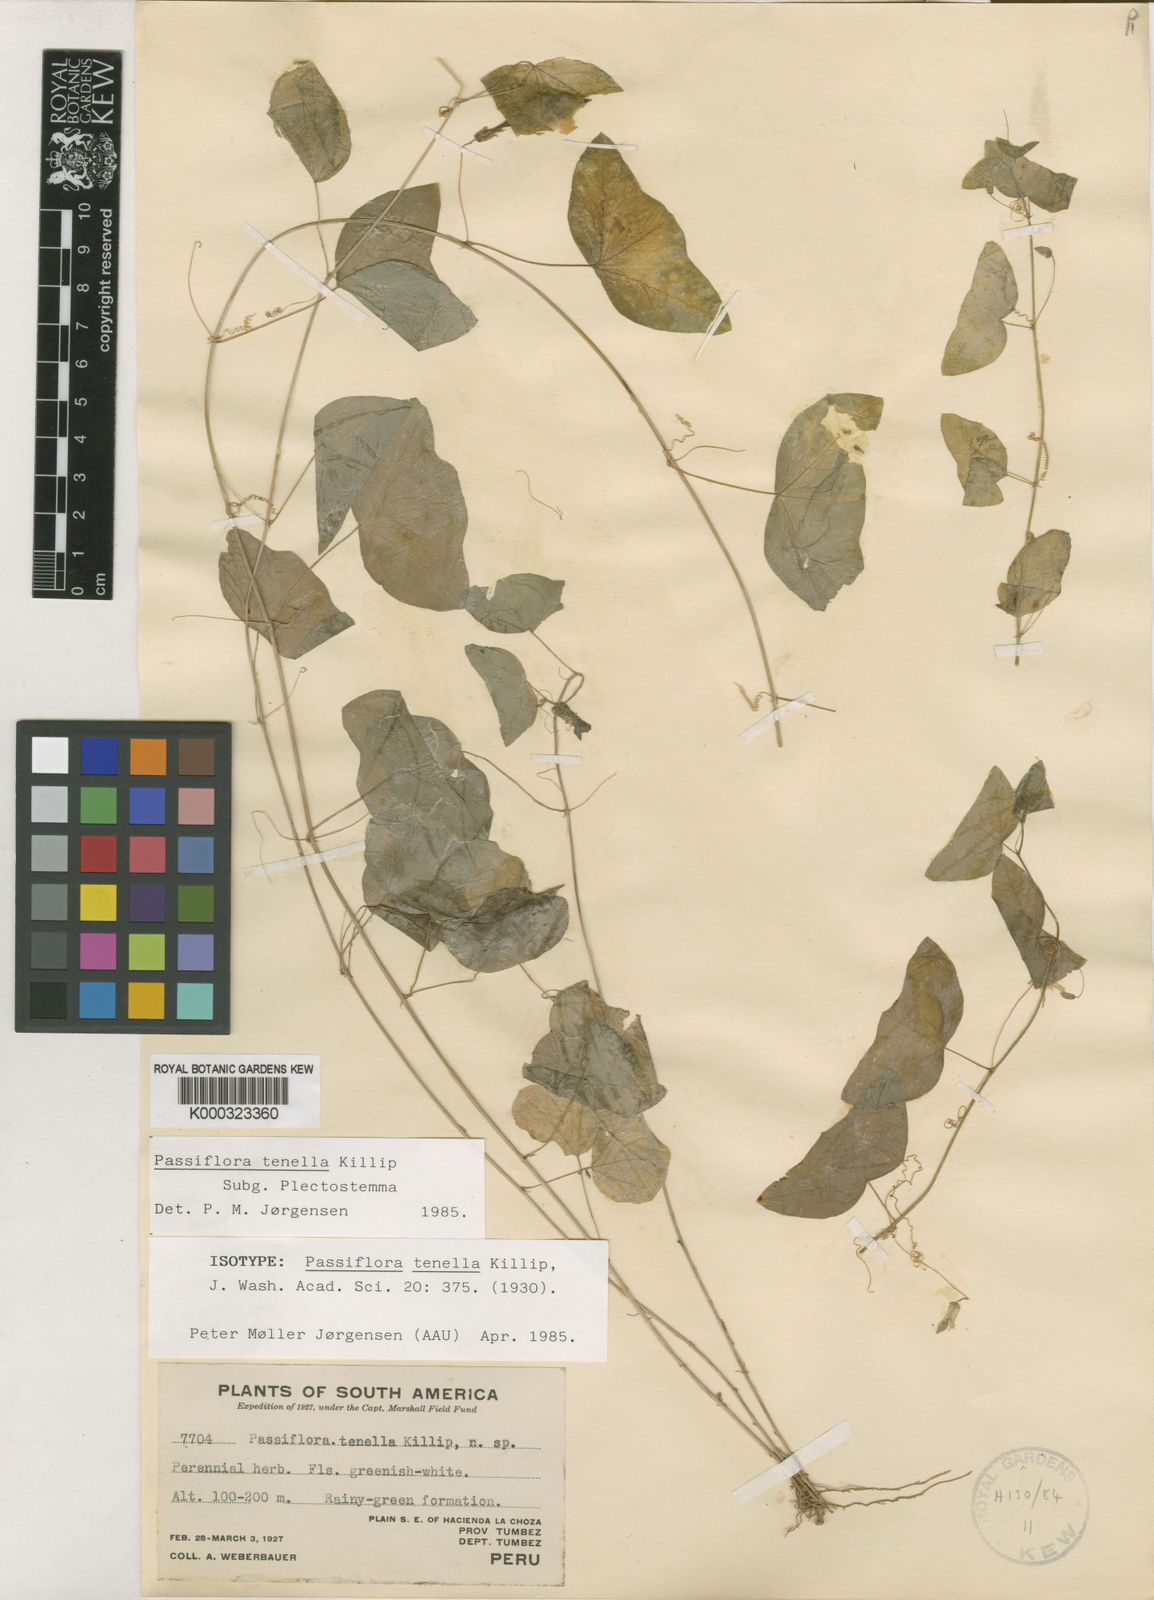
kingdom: Plantae
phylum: Tracheophyta
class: Magnoliopsida
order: Malpighiales
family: Passifloraceae
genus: Passiflora
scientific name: Passiflora tenella
